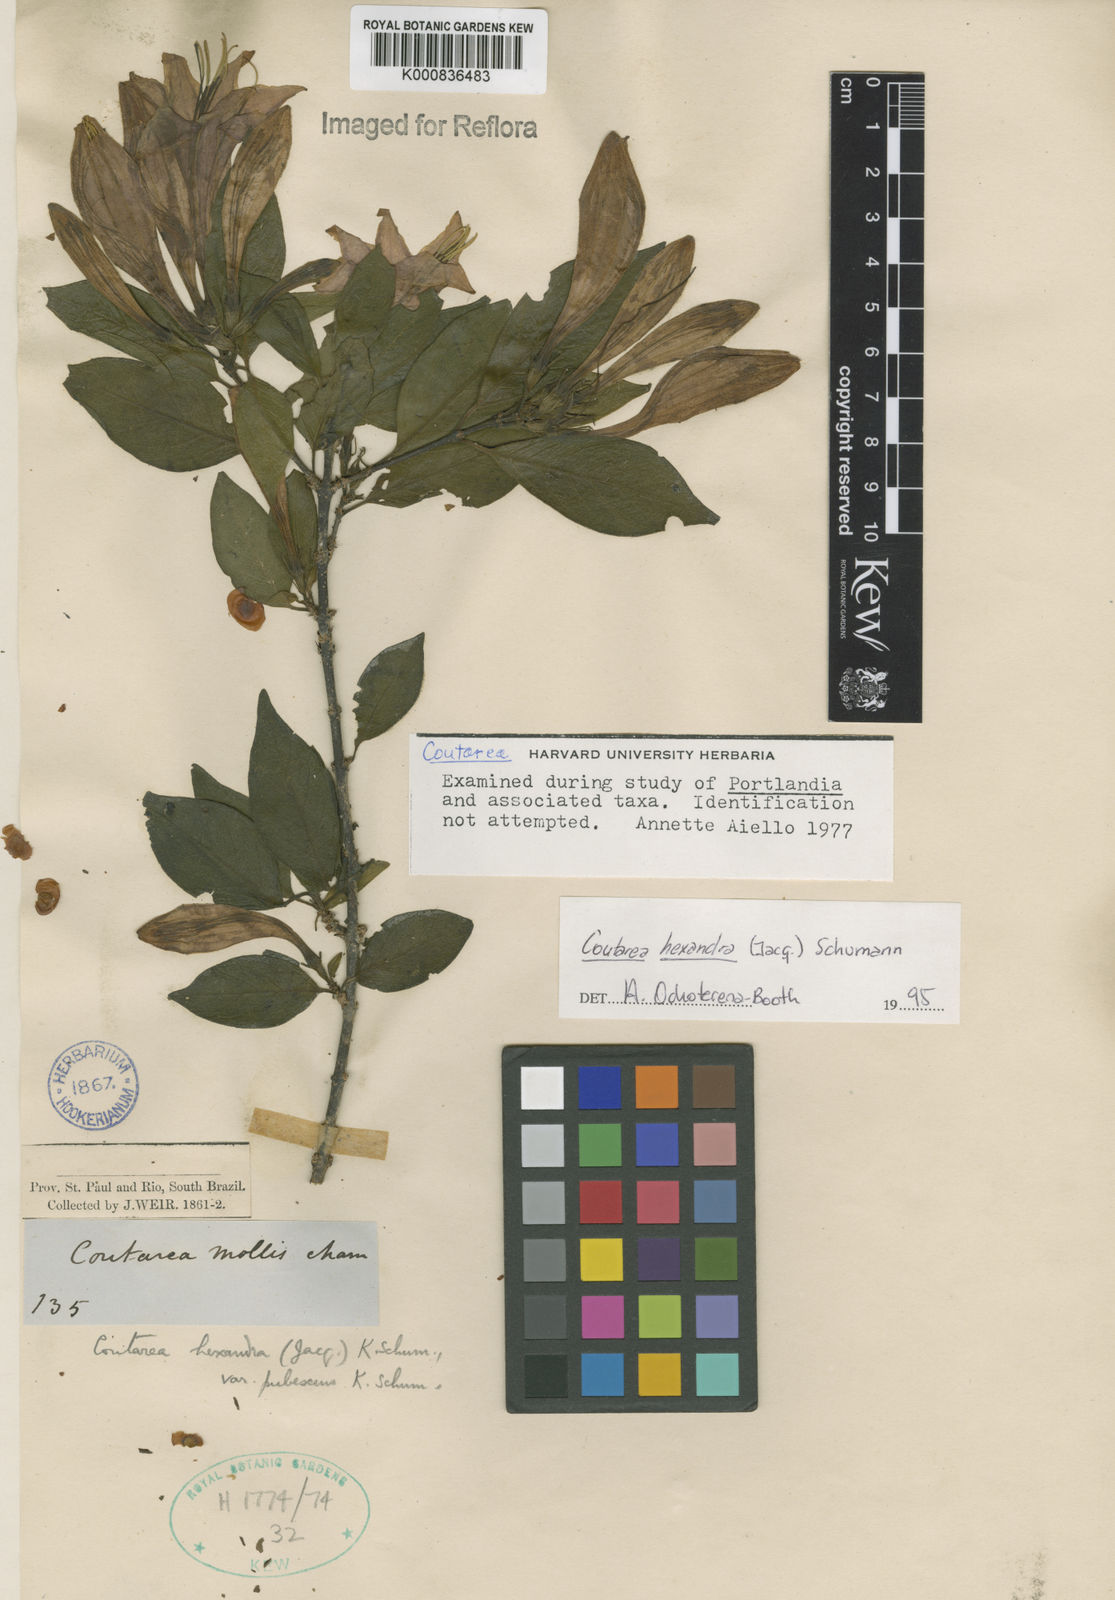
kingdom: Plantae
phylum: Tracheophyta
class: Magnoliopsida
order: Gentianales
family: Rubiaceae
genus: Coutarea
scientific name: Coutarea hexandra
